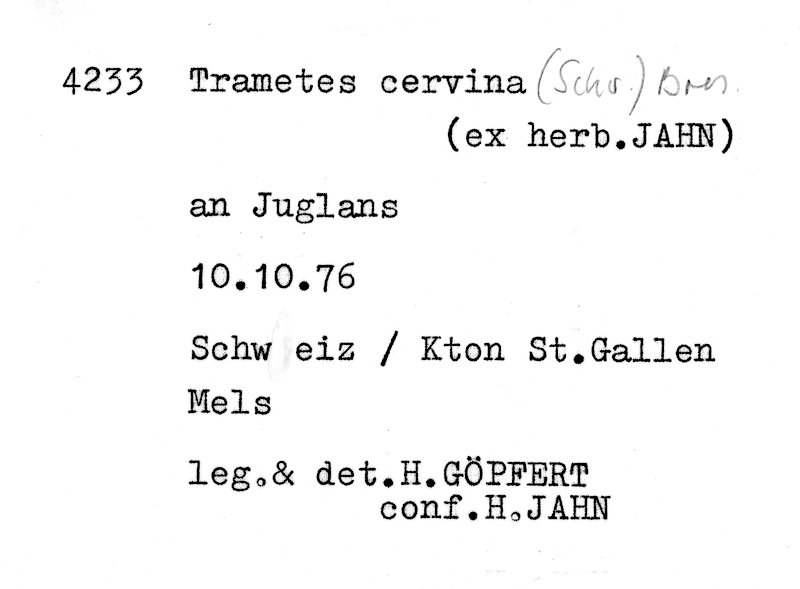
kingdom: Plantae
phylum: Tracheophyta
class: Magnoliopsida
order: Fagales
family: Juglandaceae
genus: Juglans
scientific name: Juglans
